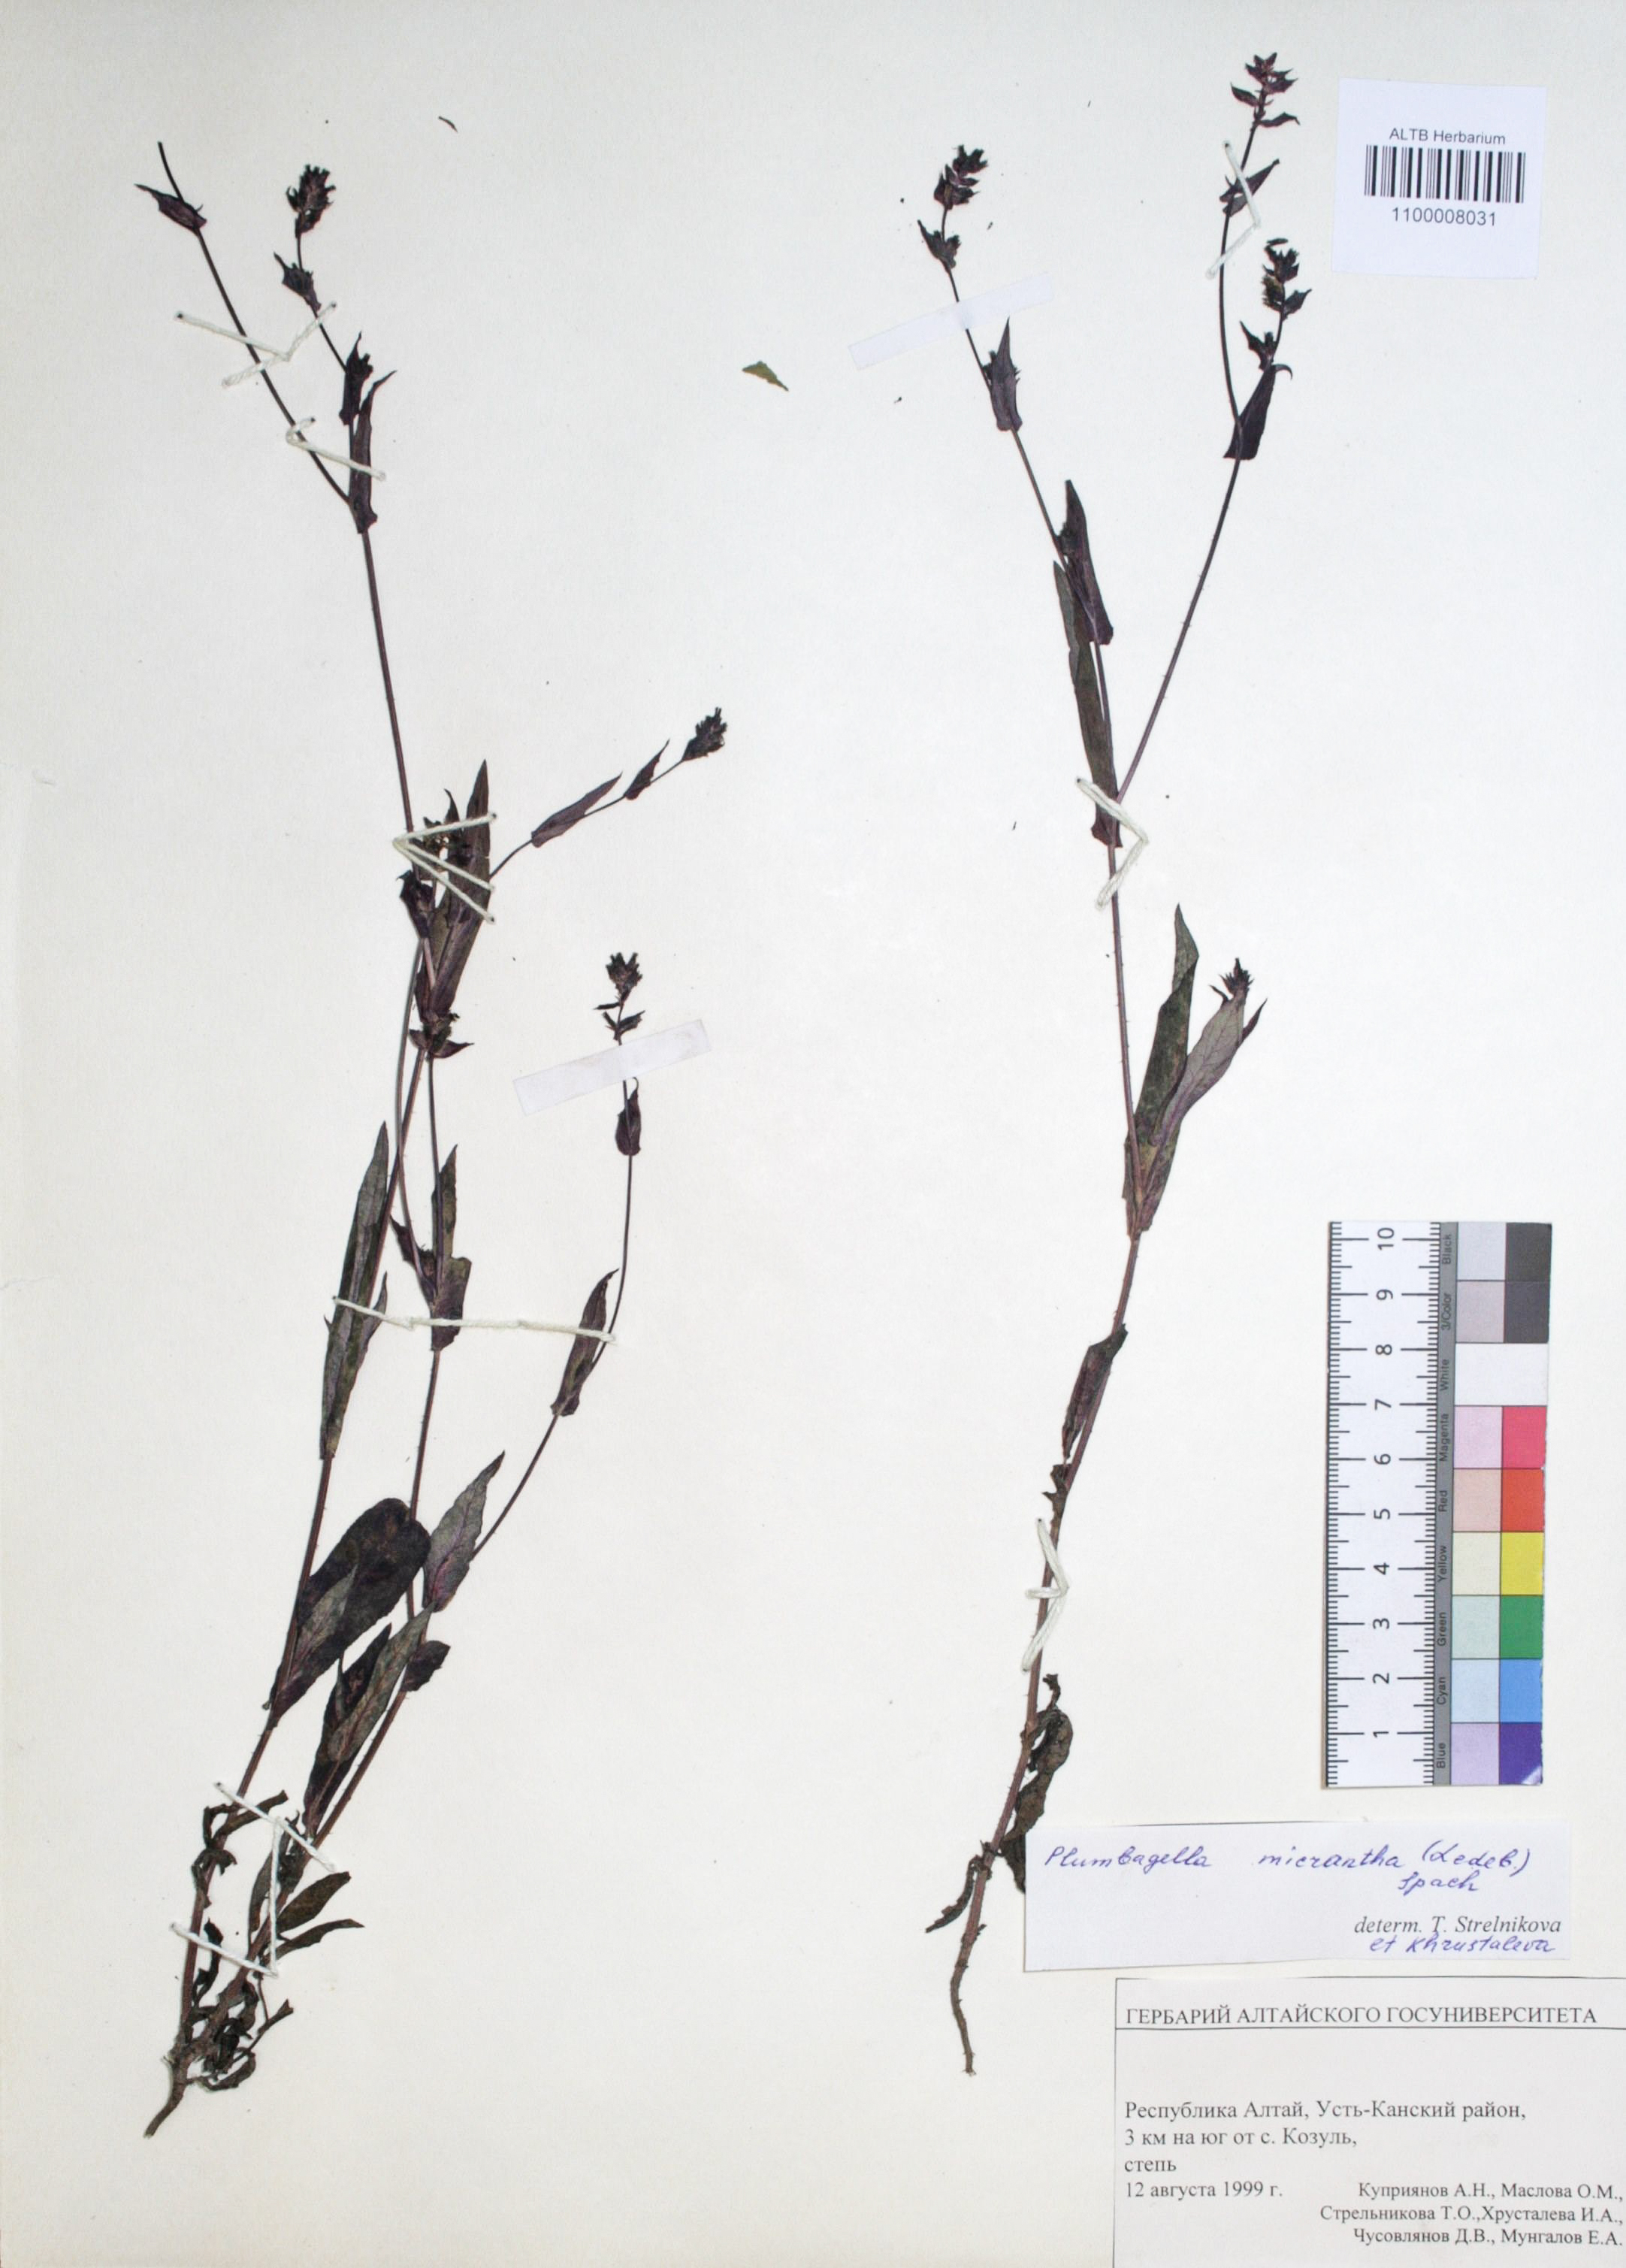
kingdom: Plantae
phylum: Tracheophyta
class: Magnoliopsida
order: Caryophyllales
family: Plumbaginaceae
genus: Plumbagella
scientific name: Plumbagella micrantha
